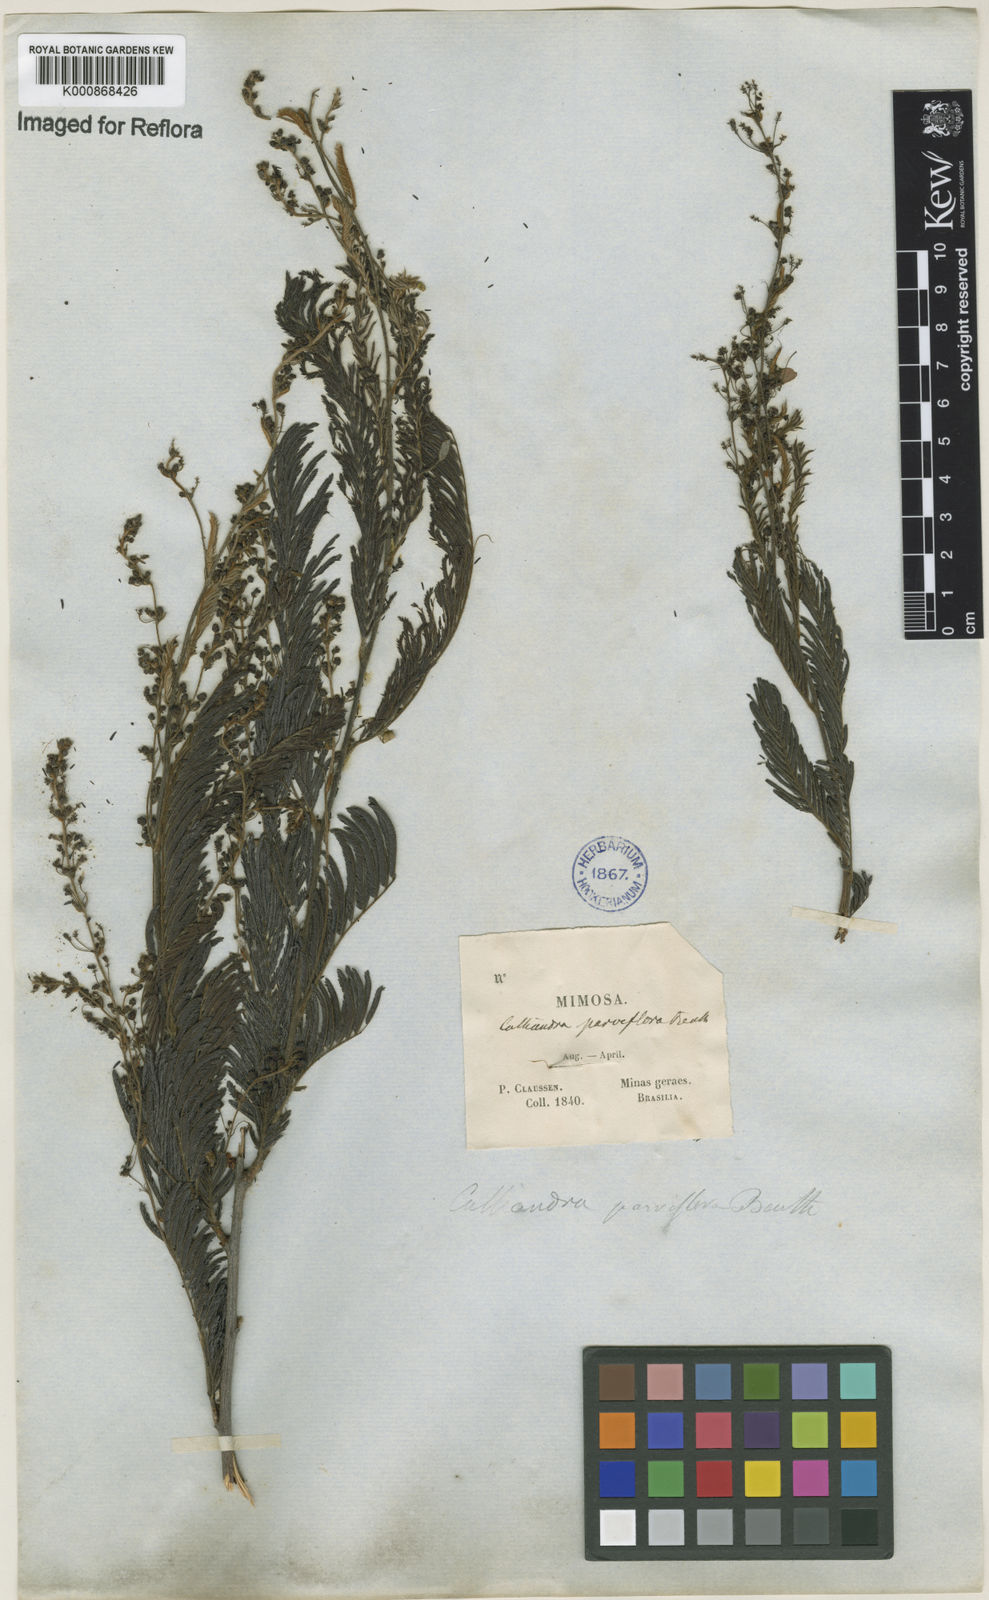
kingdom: Plantae
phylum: Tracheophyta
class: Magnoliopsida
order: Fabales
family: Fabaceae
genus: Calliandra
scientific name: Calliandra parviflora
